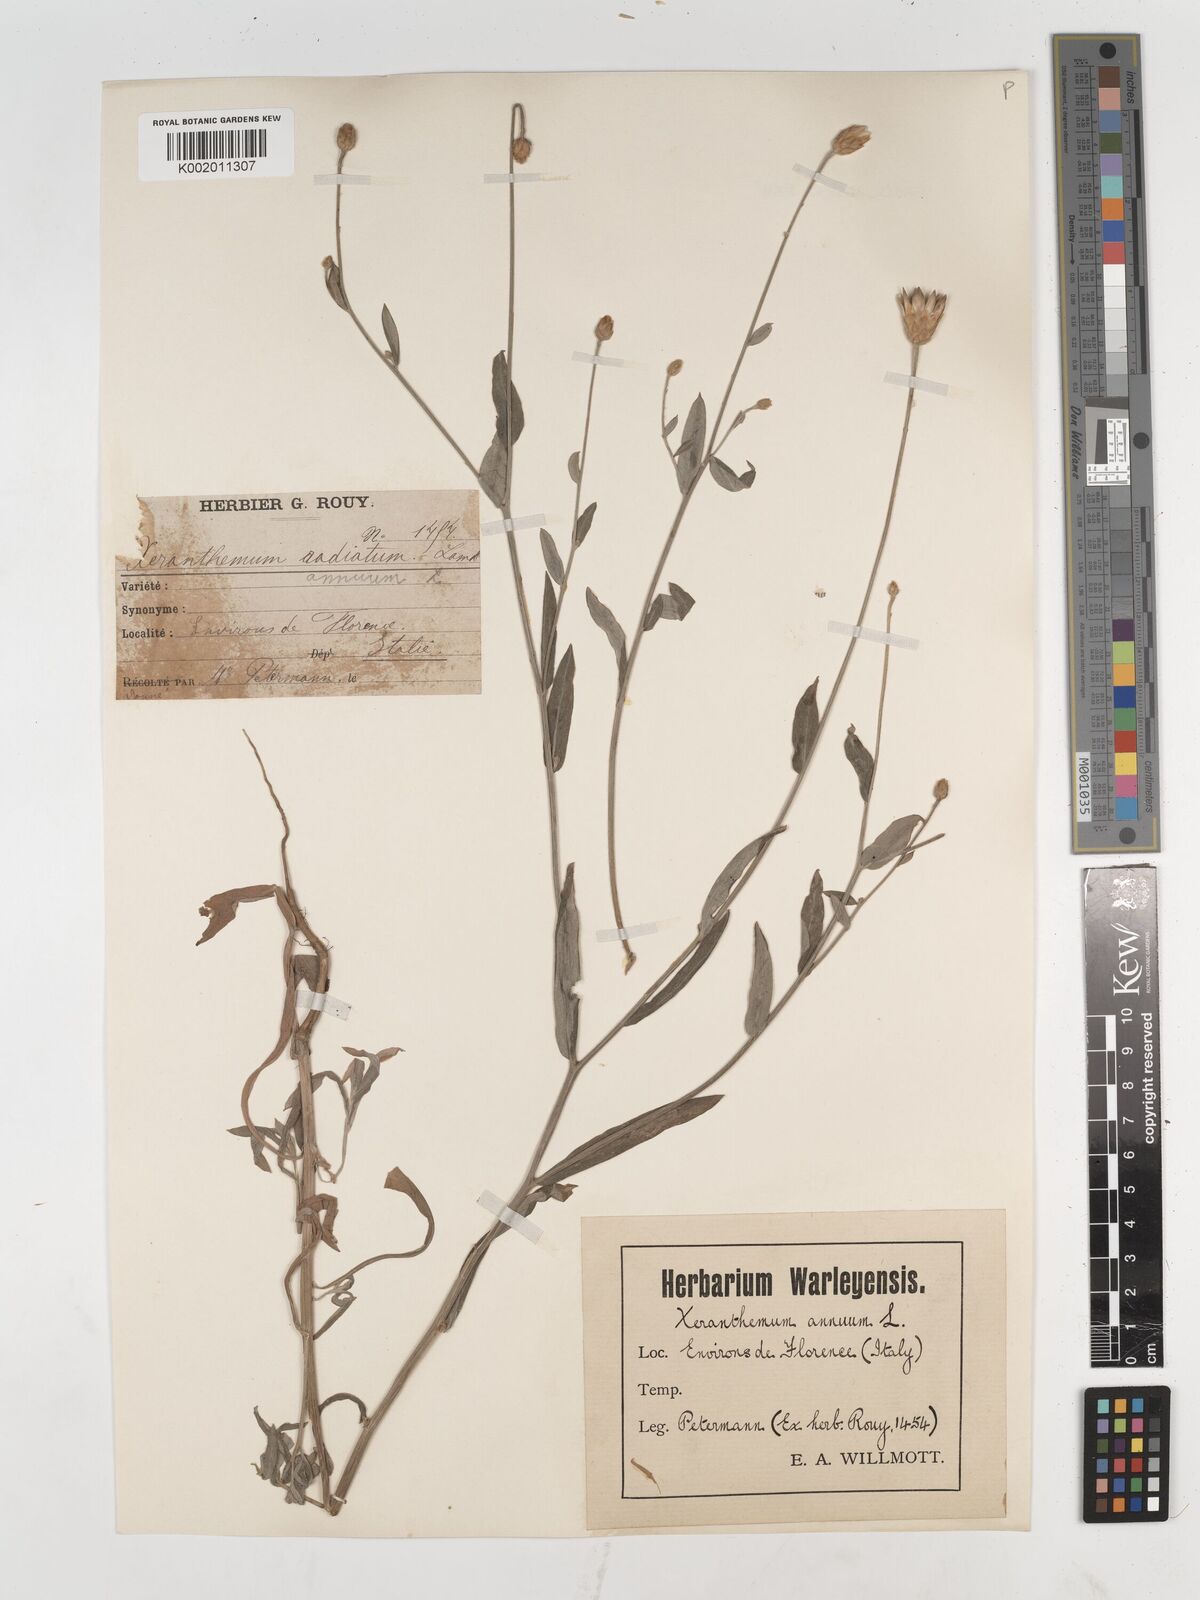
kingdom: Plantae
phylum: Tracheophyta
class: Magnoliopsida
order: Asterales
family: Asteraceae
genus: Xeranthemum
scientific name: Xeranthemum annuum
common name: Immortelle
